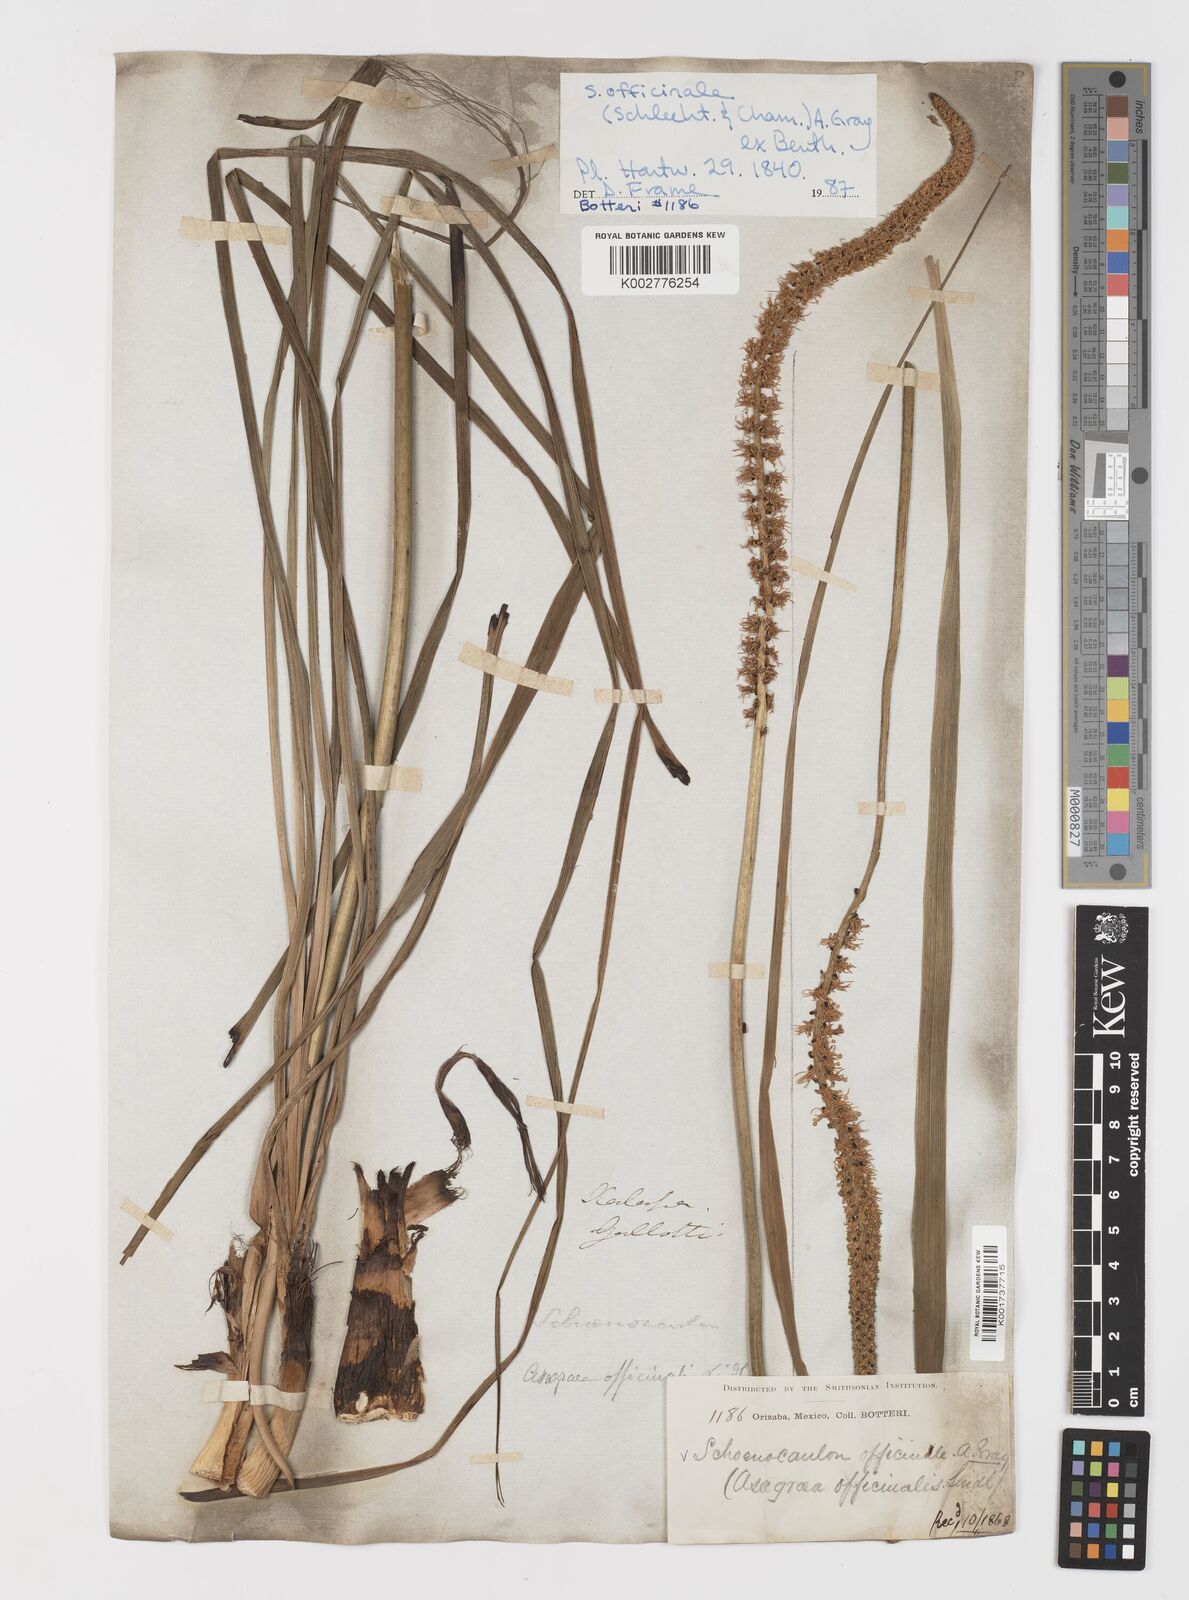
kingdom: Plantae
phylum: Tracheophyta
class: Liliopsida
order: Liliales
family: Melanthiaceae
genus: Schoenocaulon
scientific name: Schoenocaulon officinale
